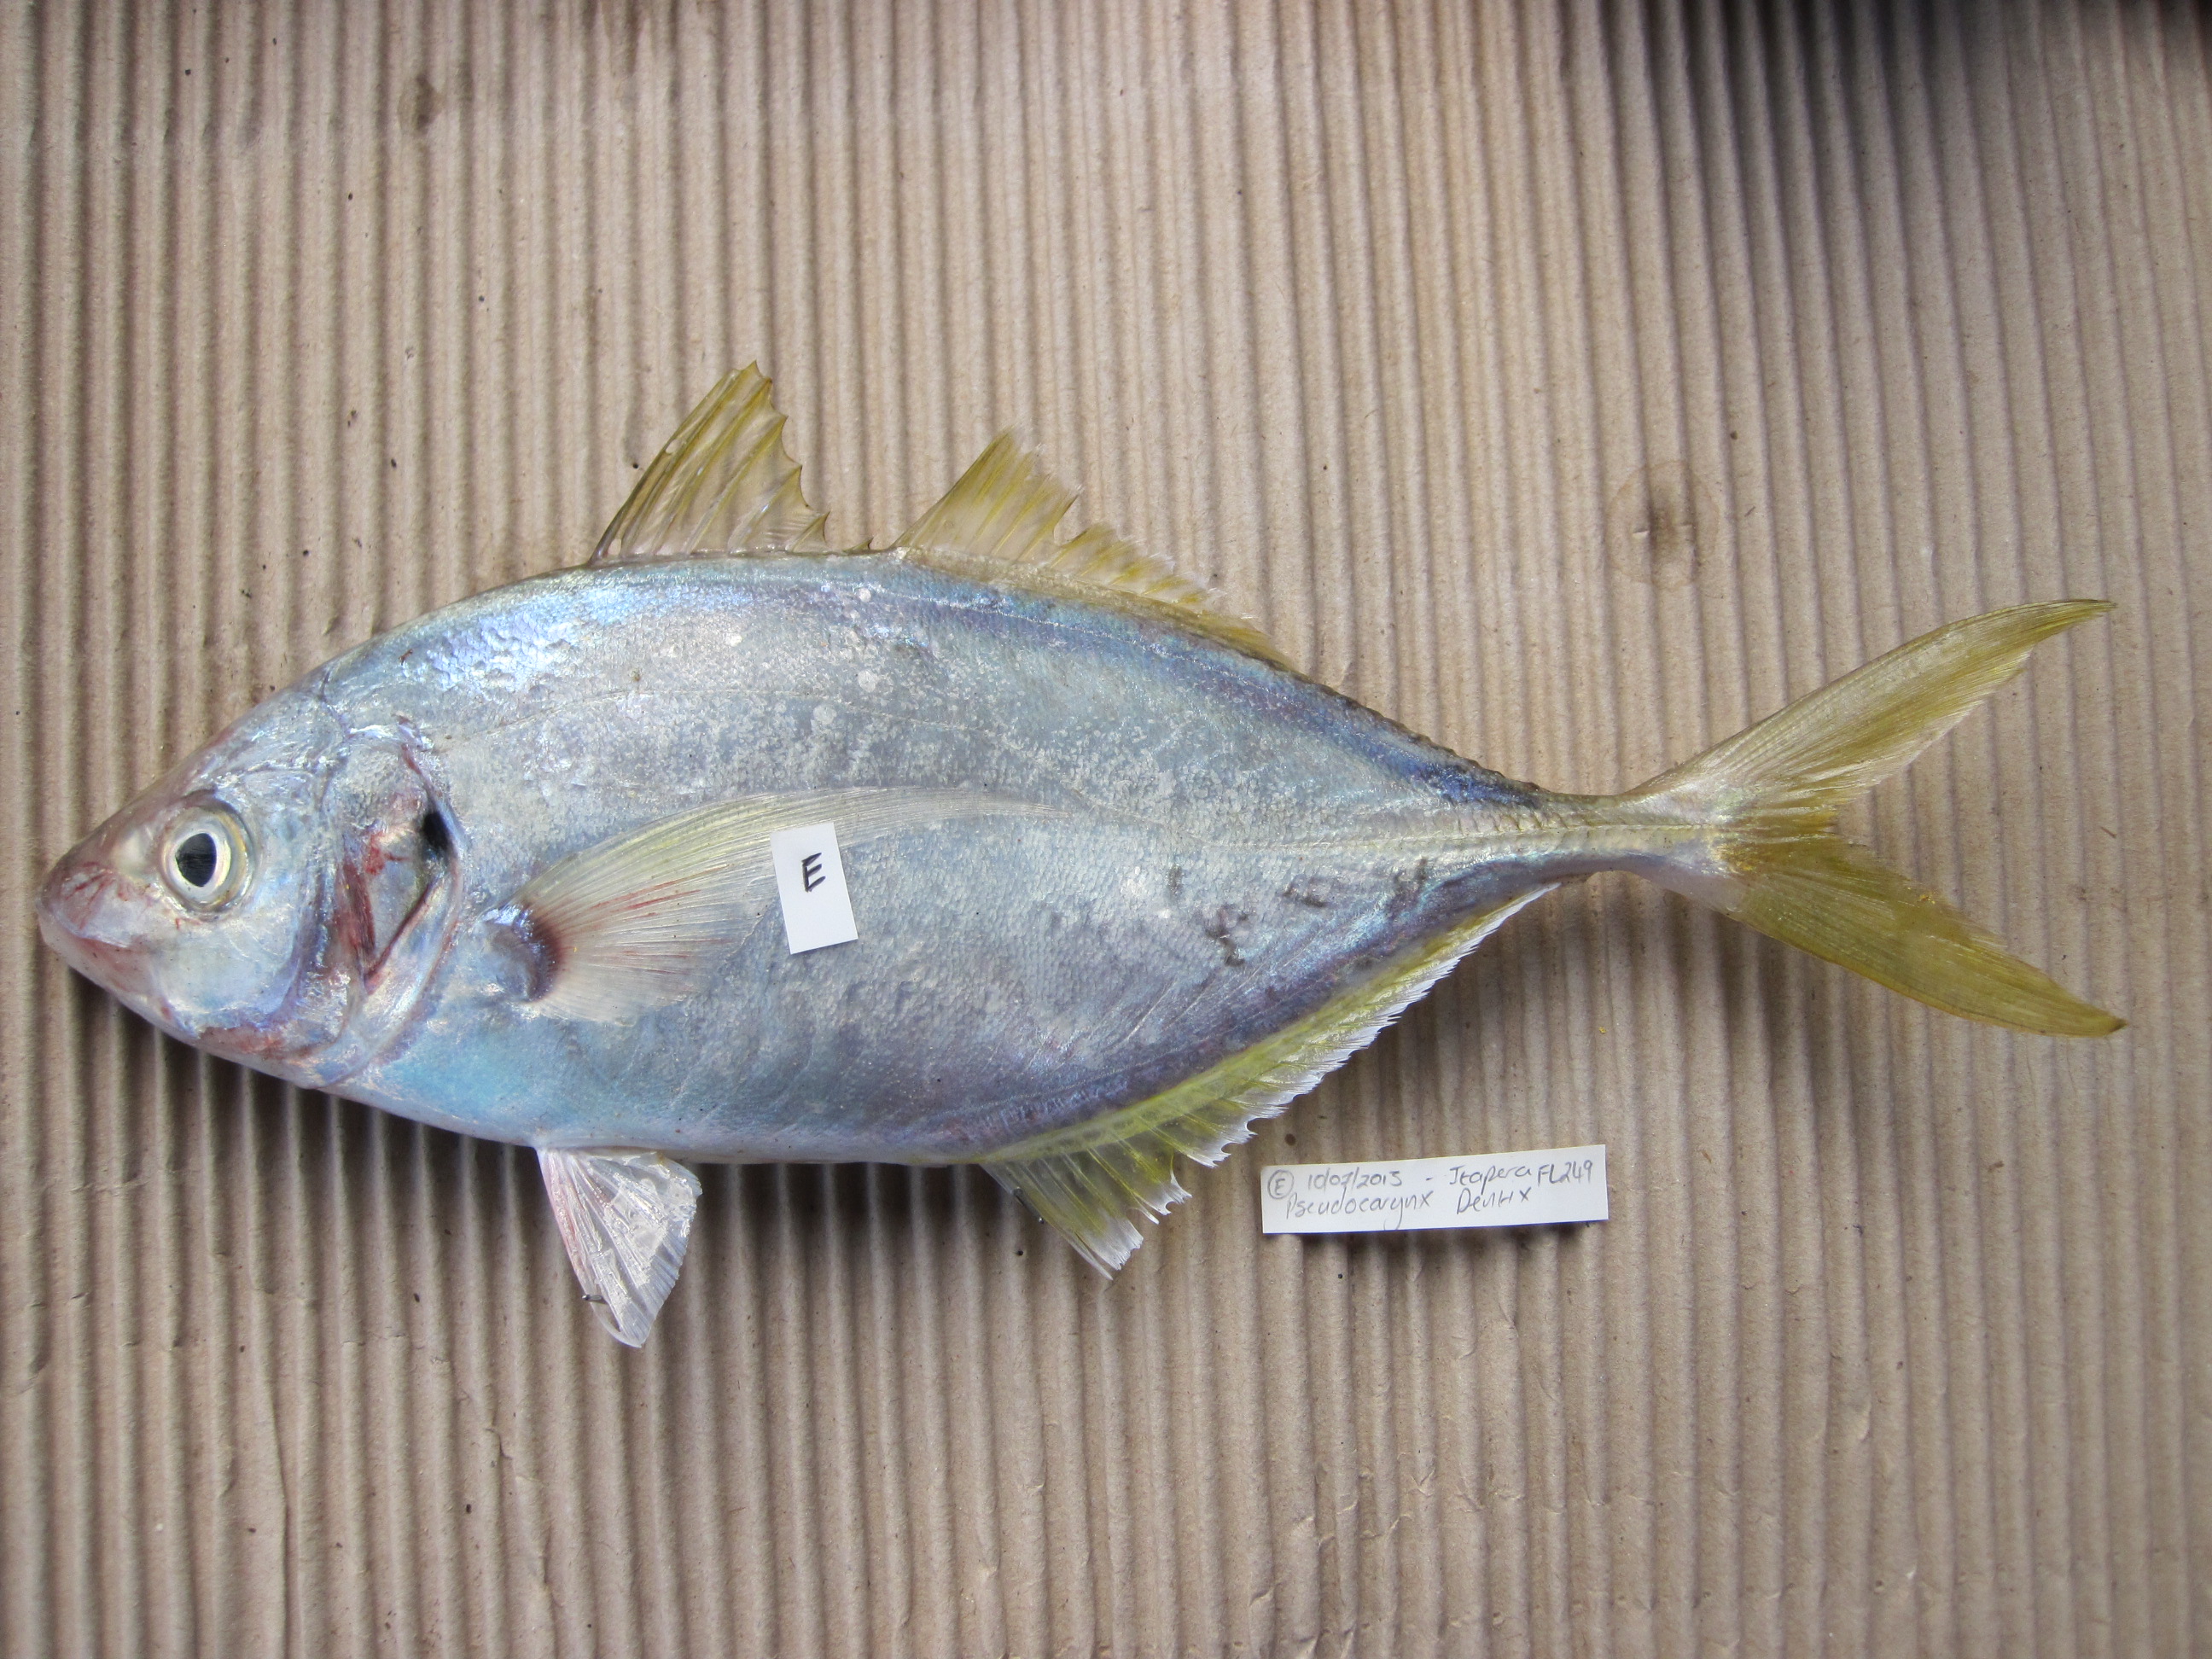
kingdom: Animalia
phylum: Chordata
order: Perciformes
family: Carangidae
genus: Pseudocaranx
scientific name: Pseudocaranx dentex
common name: White trevally
